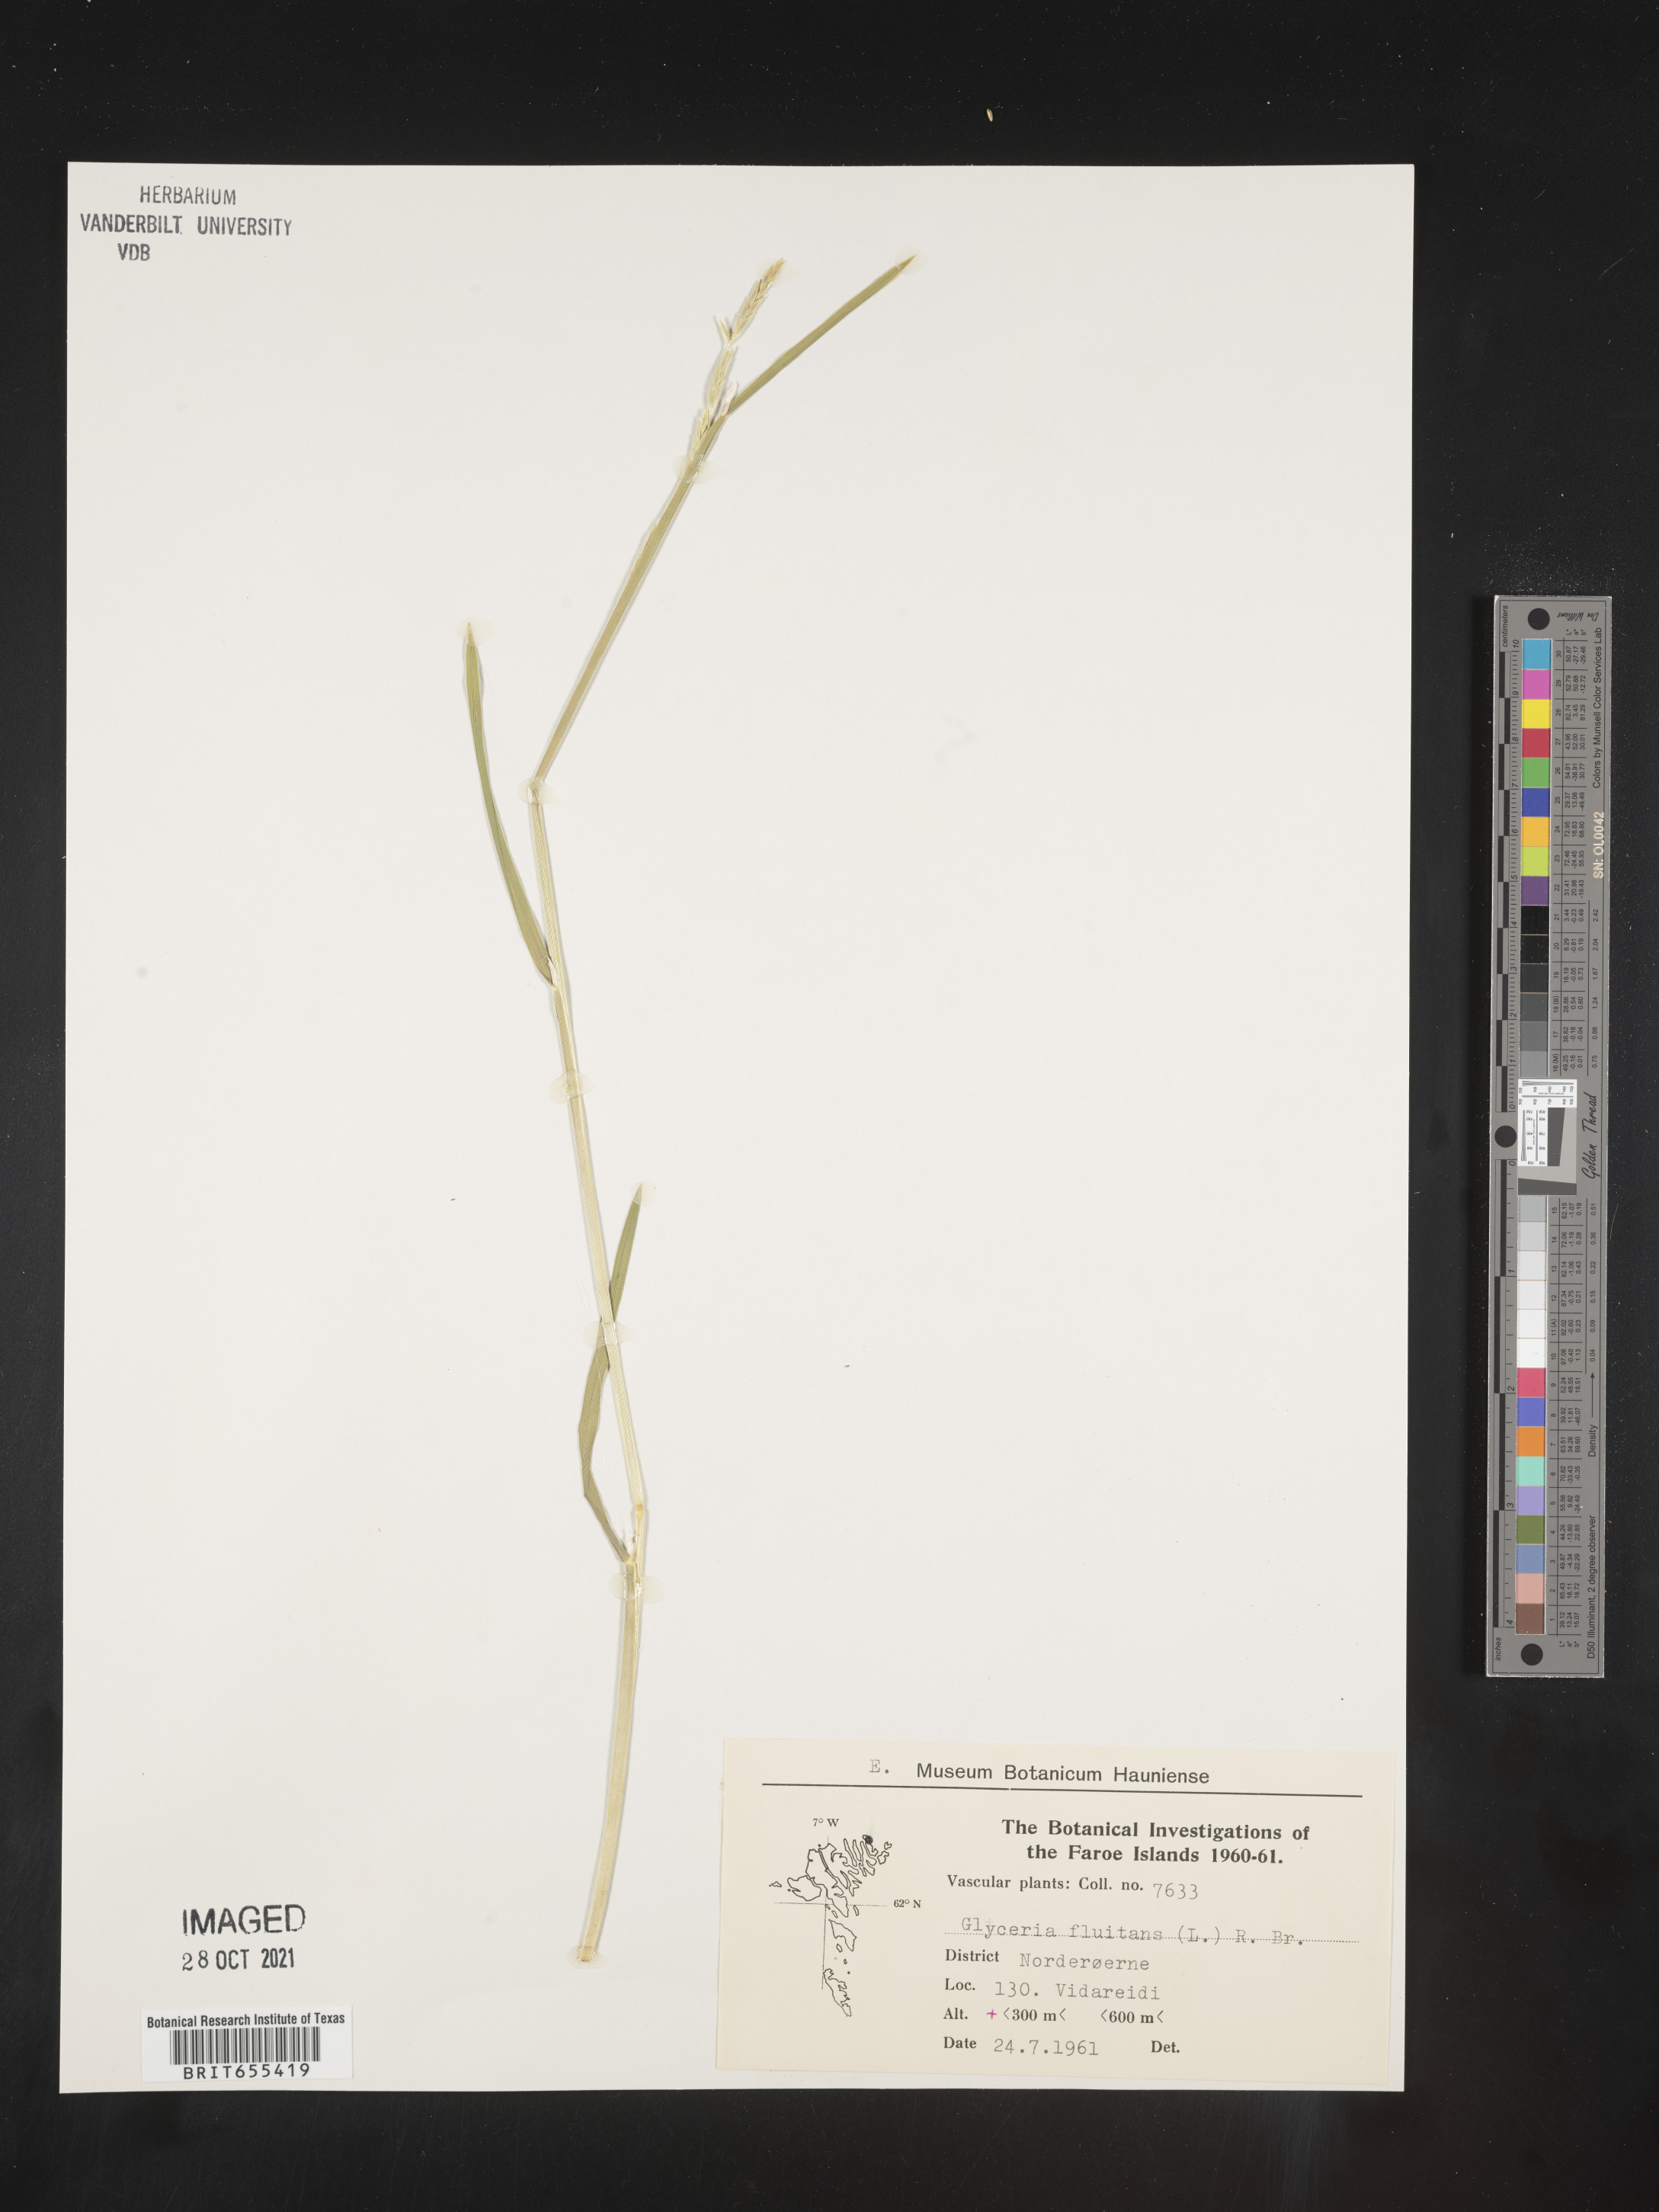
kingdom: Plantae
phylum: Tracheophyta
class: Liliopsida
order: Poales
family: Poaceae
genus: Glyceria
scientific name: Glyceria
